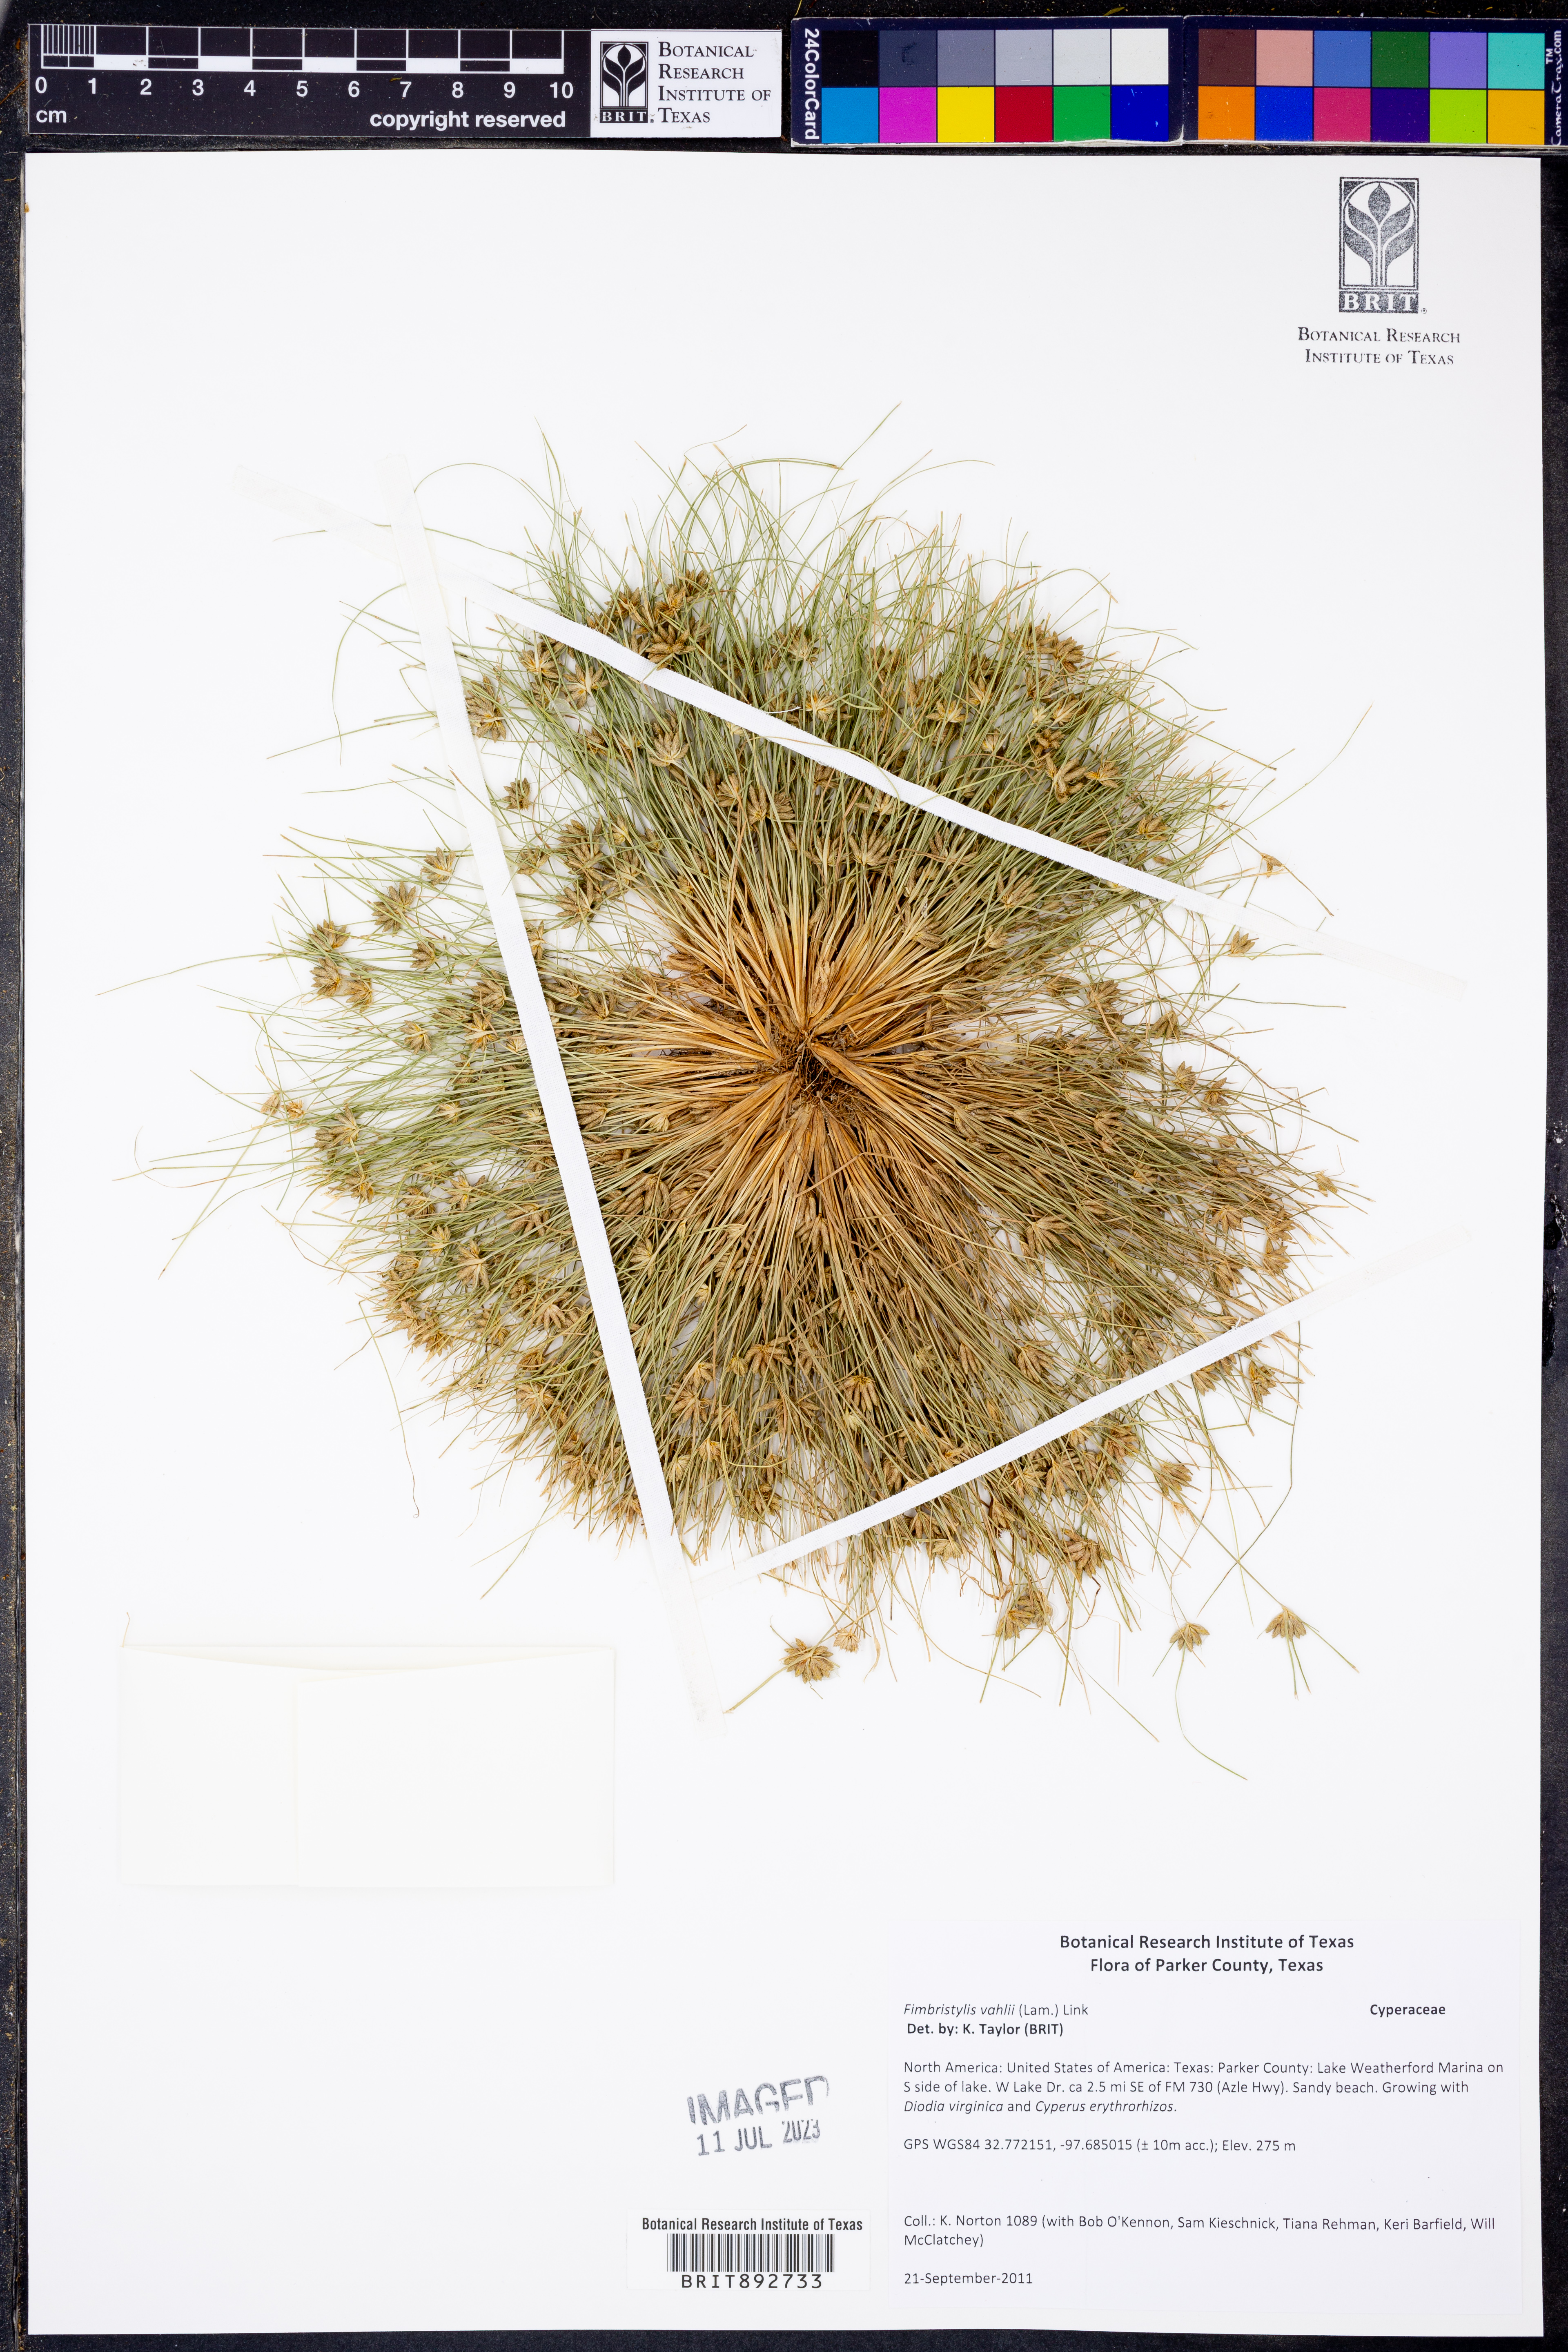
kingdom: Plantae
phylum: Tracheophyta
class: Liliopsida
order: Poales
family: Cyperaceae
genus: Fimbristylis
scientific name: Fimbristylis vahlii
